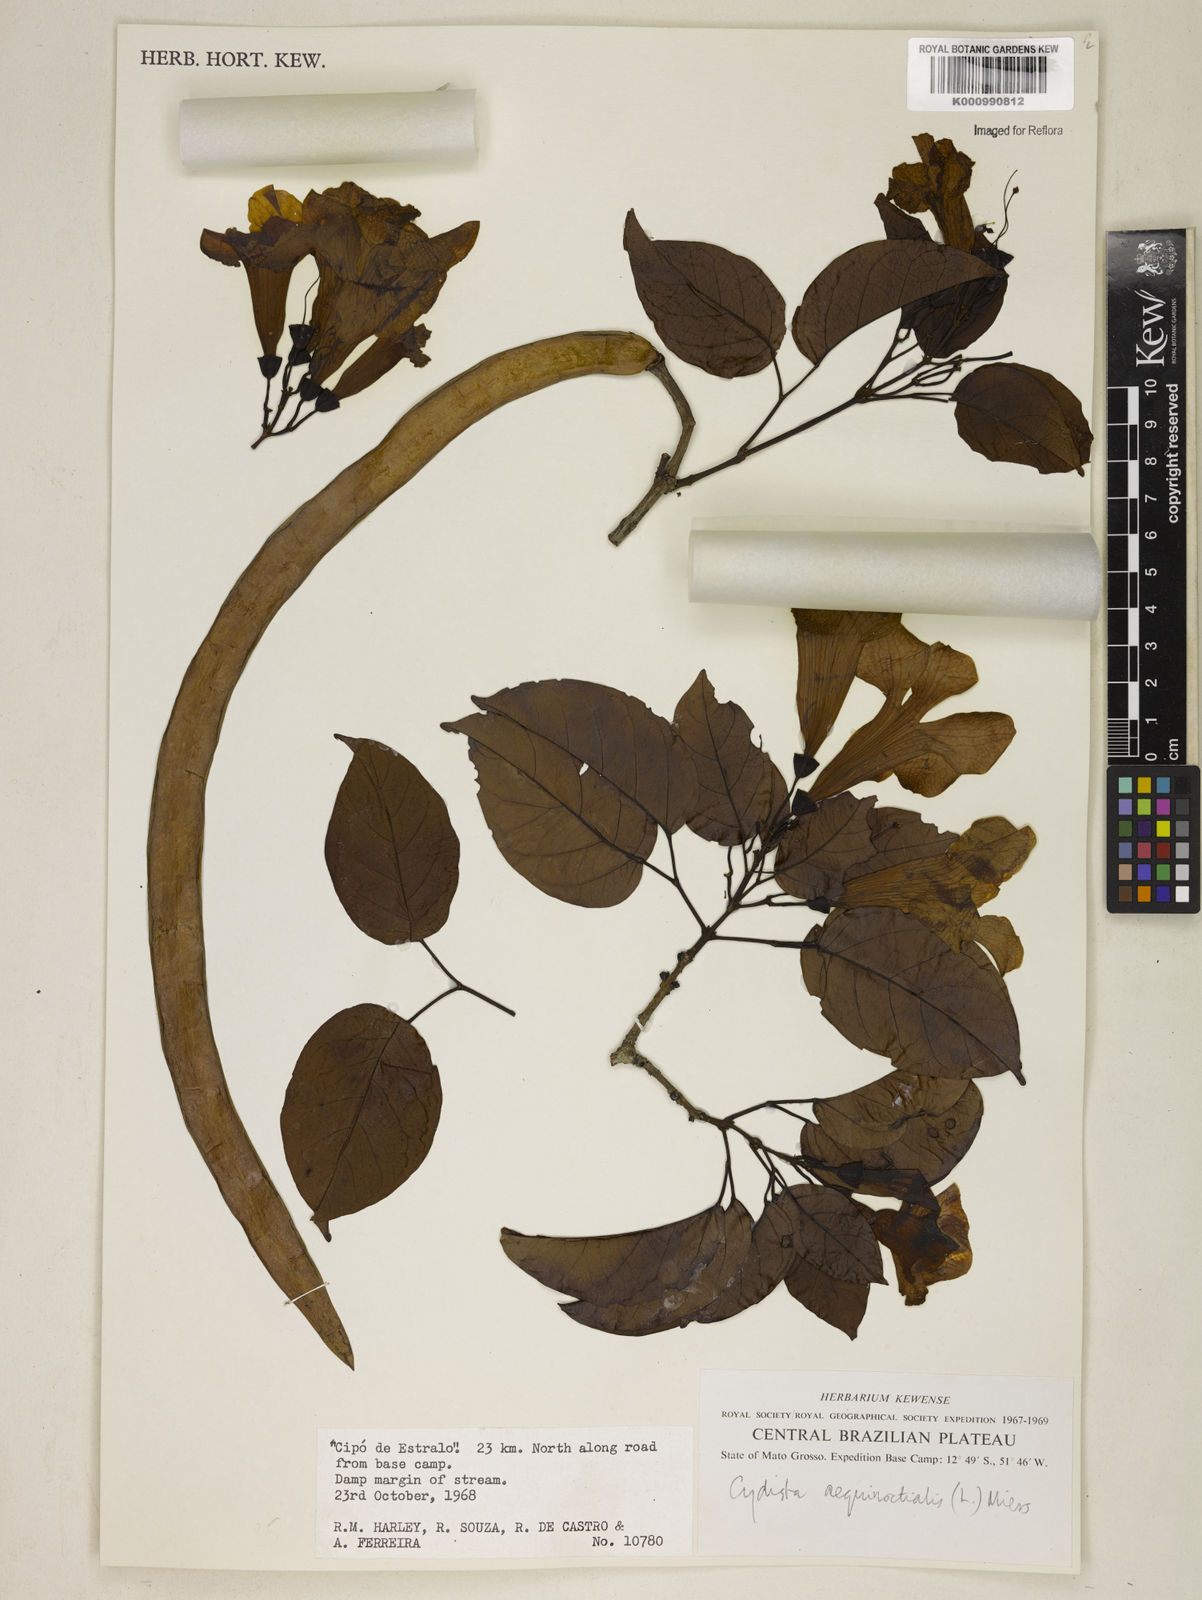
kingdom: Plantae
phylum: Tracheophyta
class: Magnoliopsida
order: Lamiales
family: Bignoniaceae
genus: Bignonia
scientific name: Bignonia aequinoctialis
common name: Garlicvine
